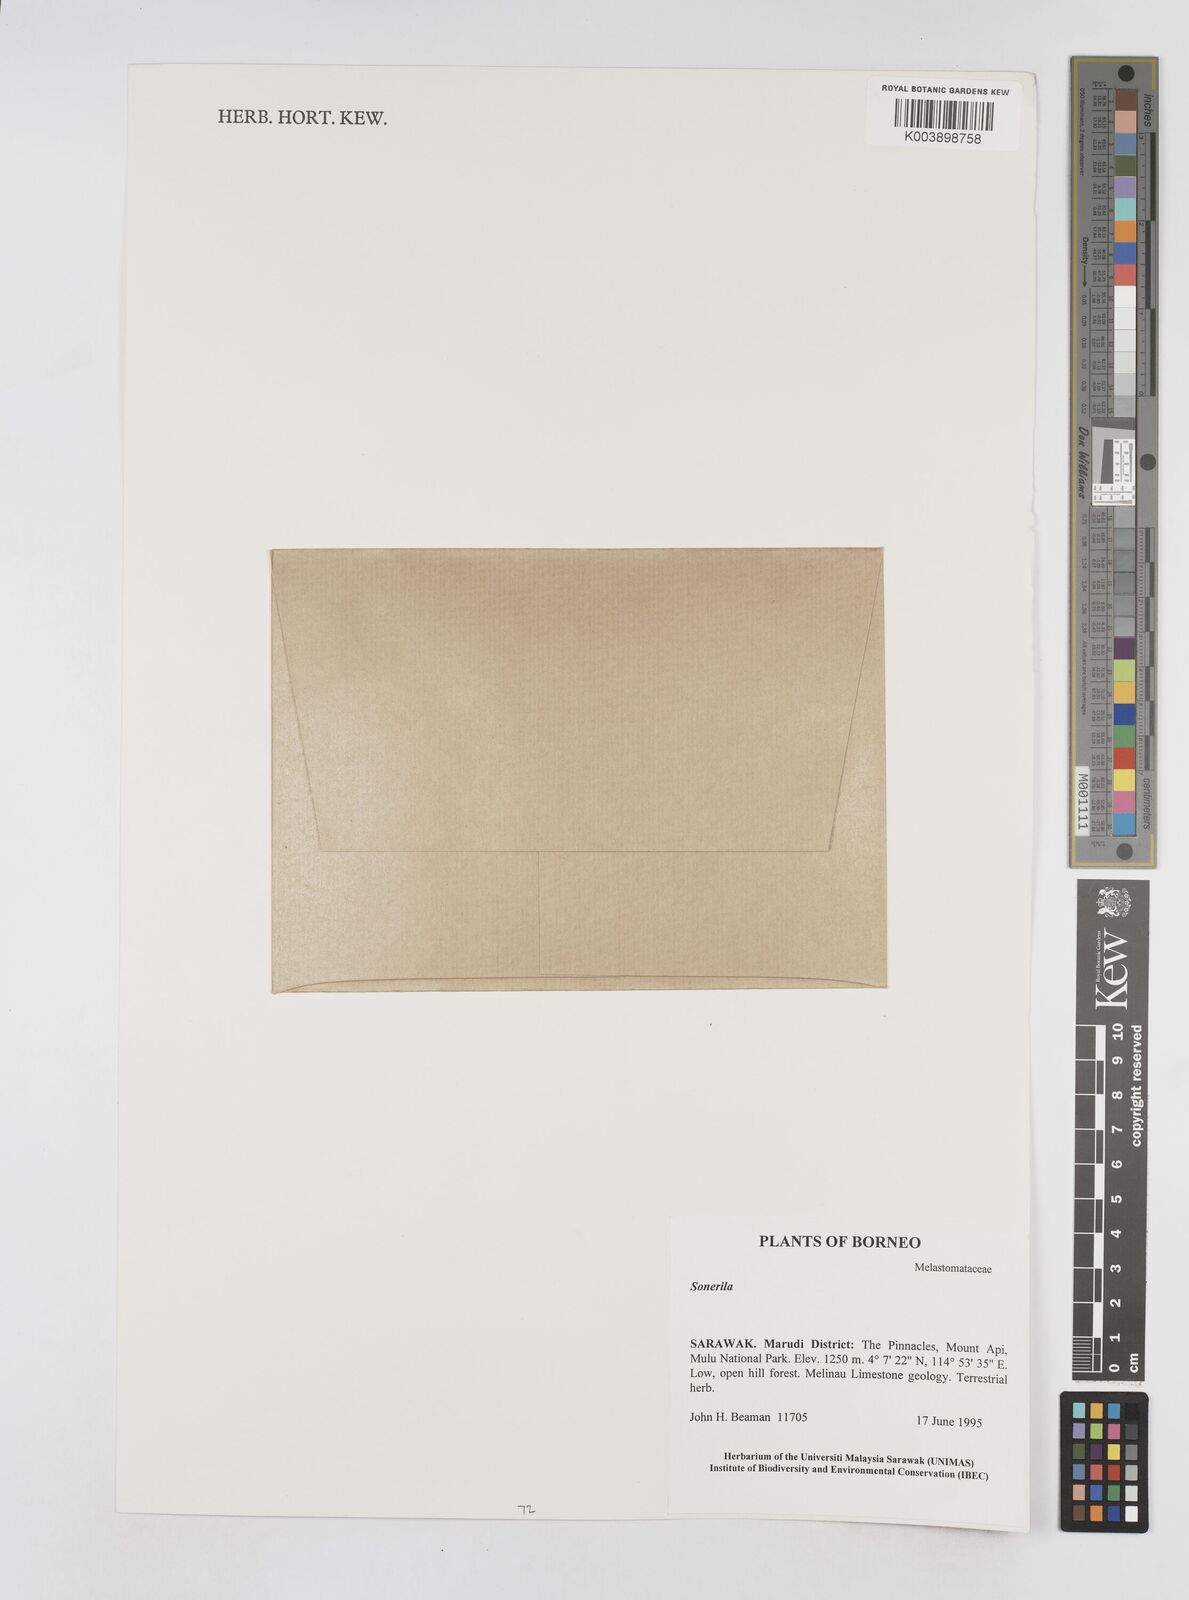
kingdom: Plantae
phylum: Tracheophyta
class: Magnoliopsida
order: Myrtales
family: Melastomataceae
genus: Sonerila
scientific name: Sonerila
